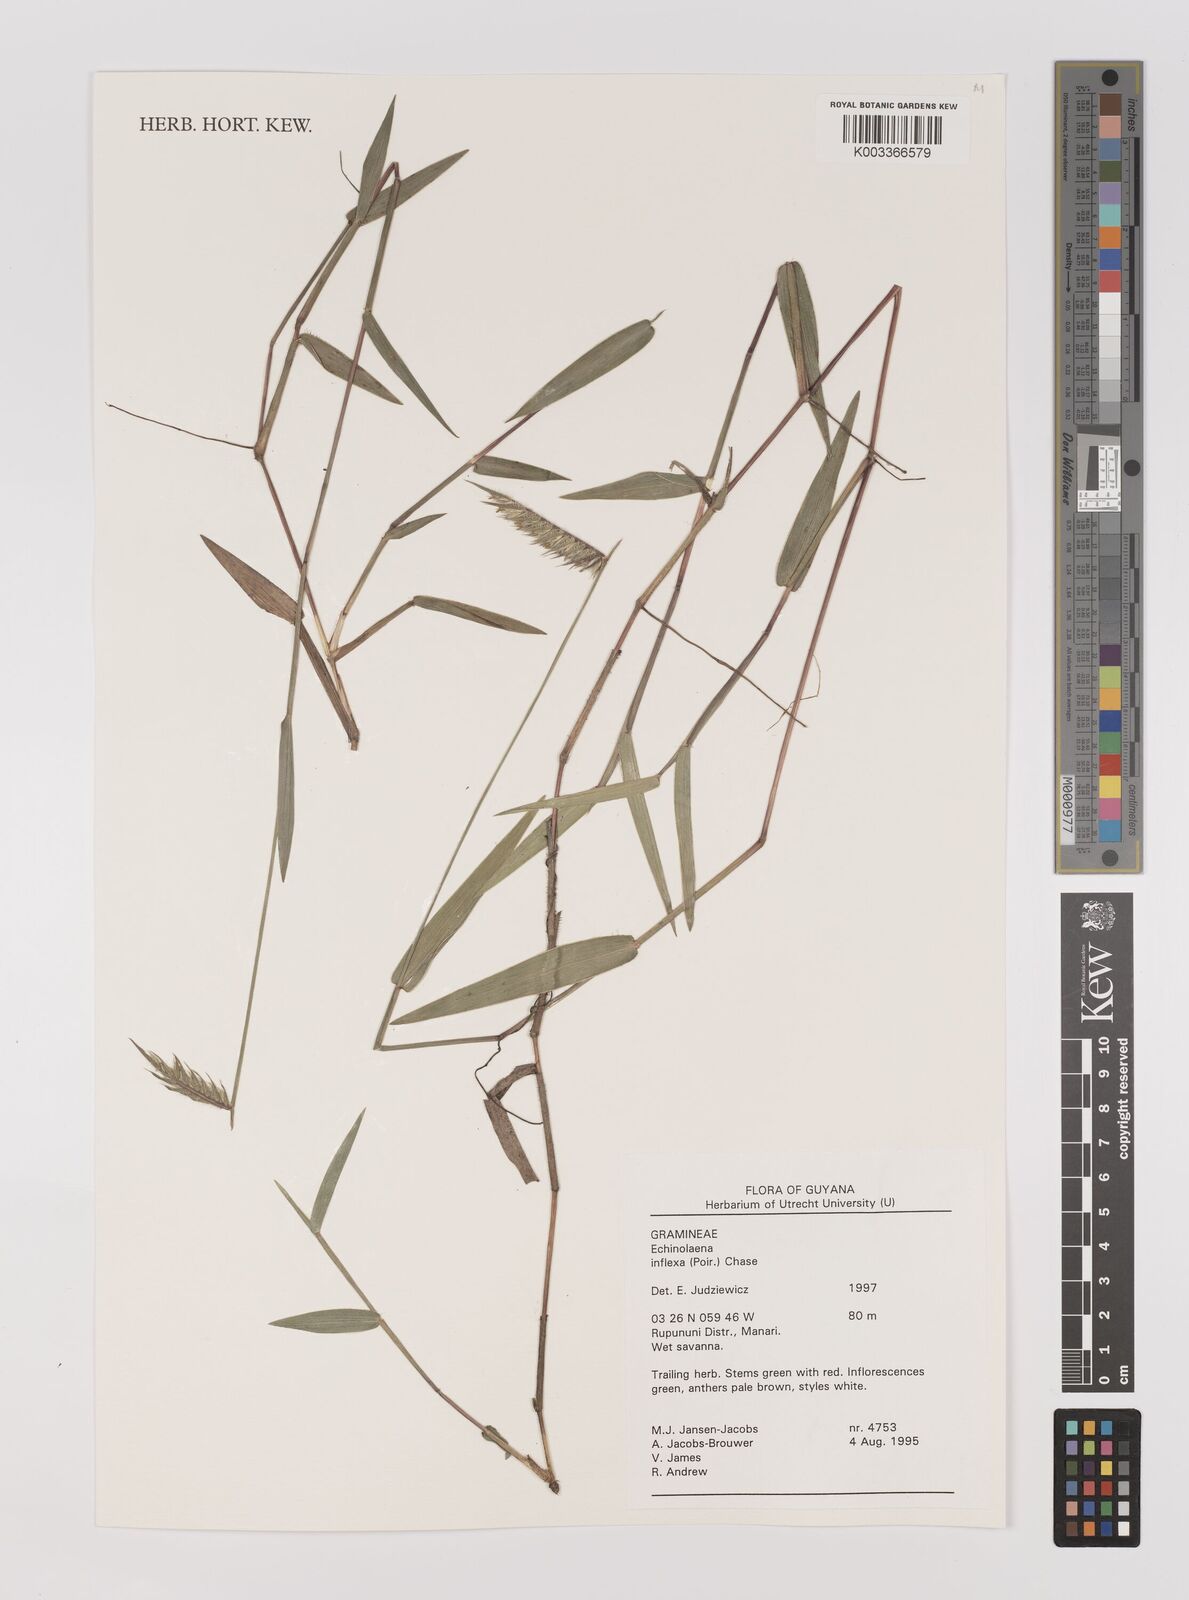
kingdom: Plantae
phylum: Tracheophyta
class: Liliopsida
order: Poales
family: Poaceae
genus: Echinolaena
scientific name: Echinolaena inflexa
